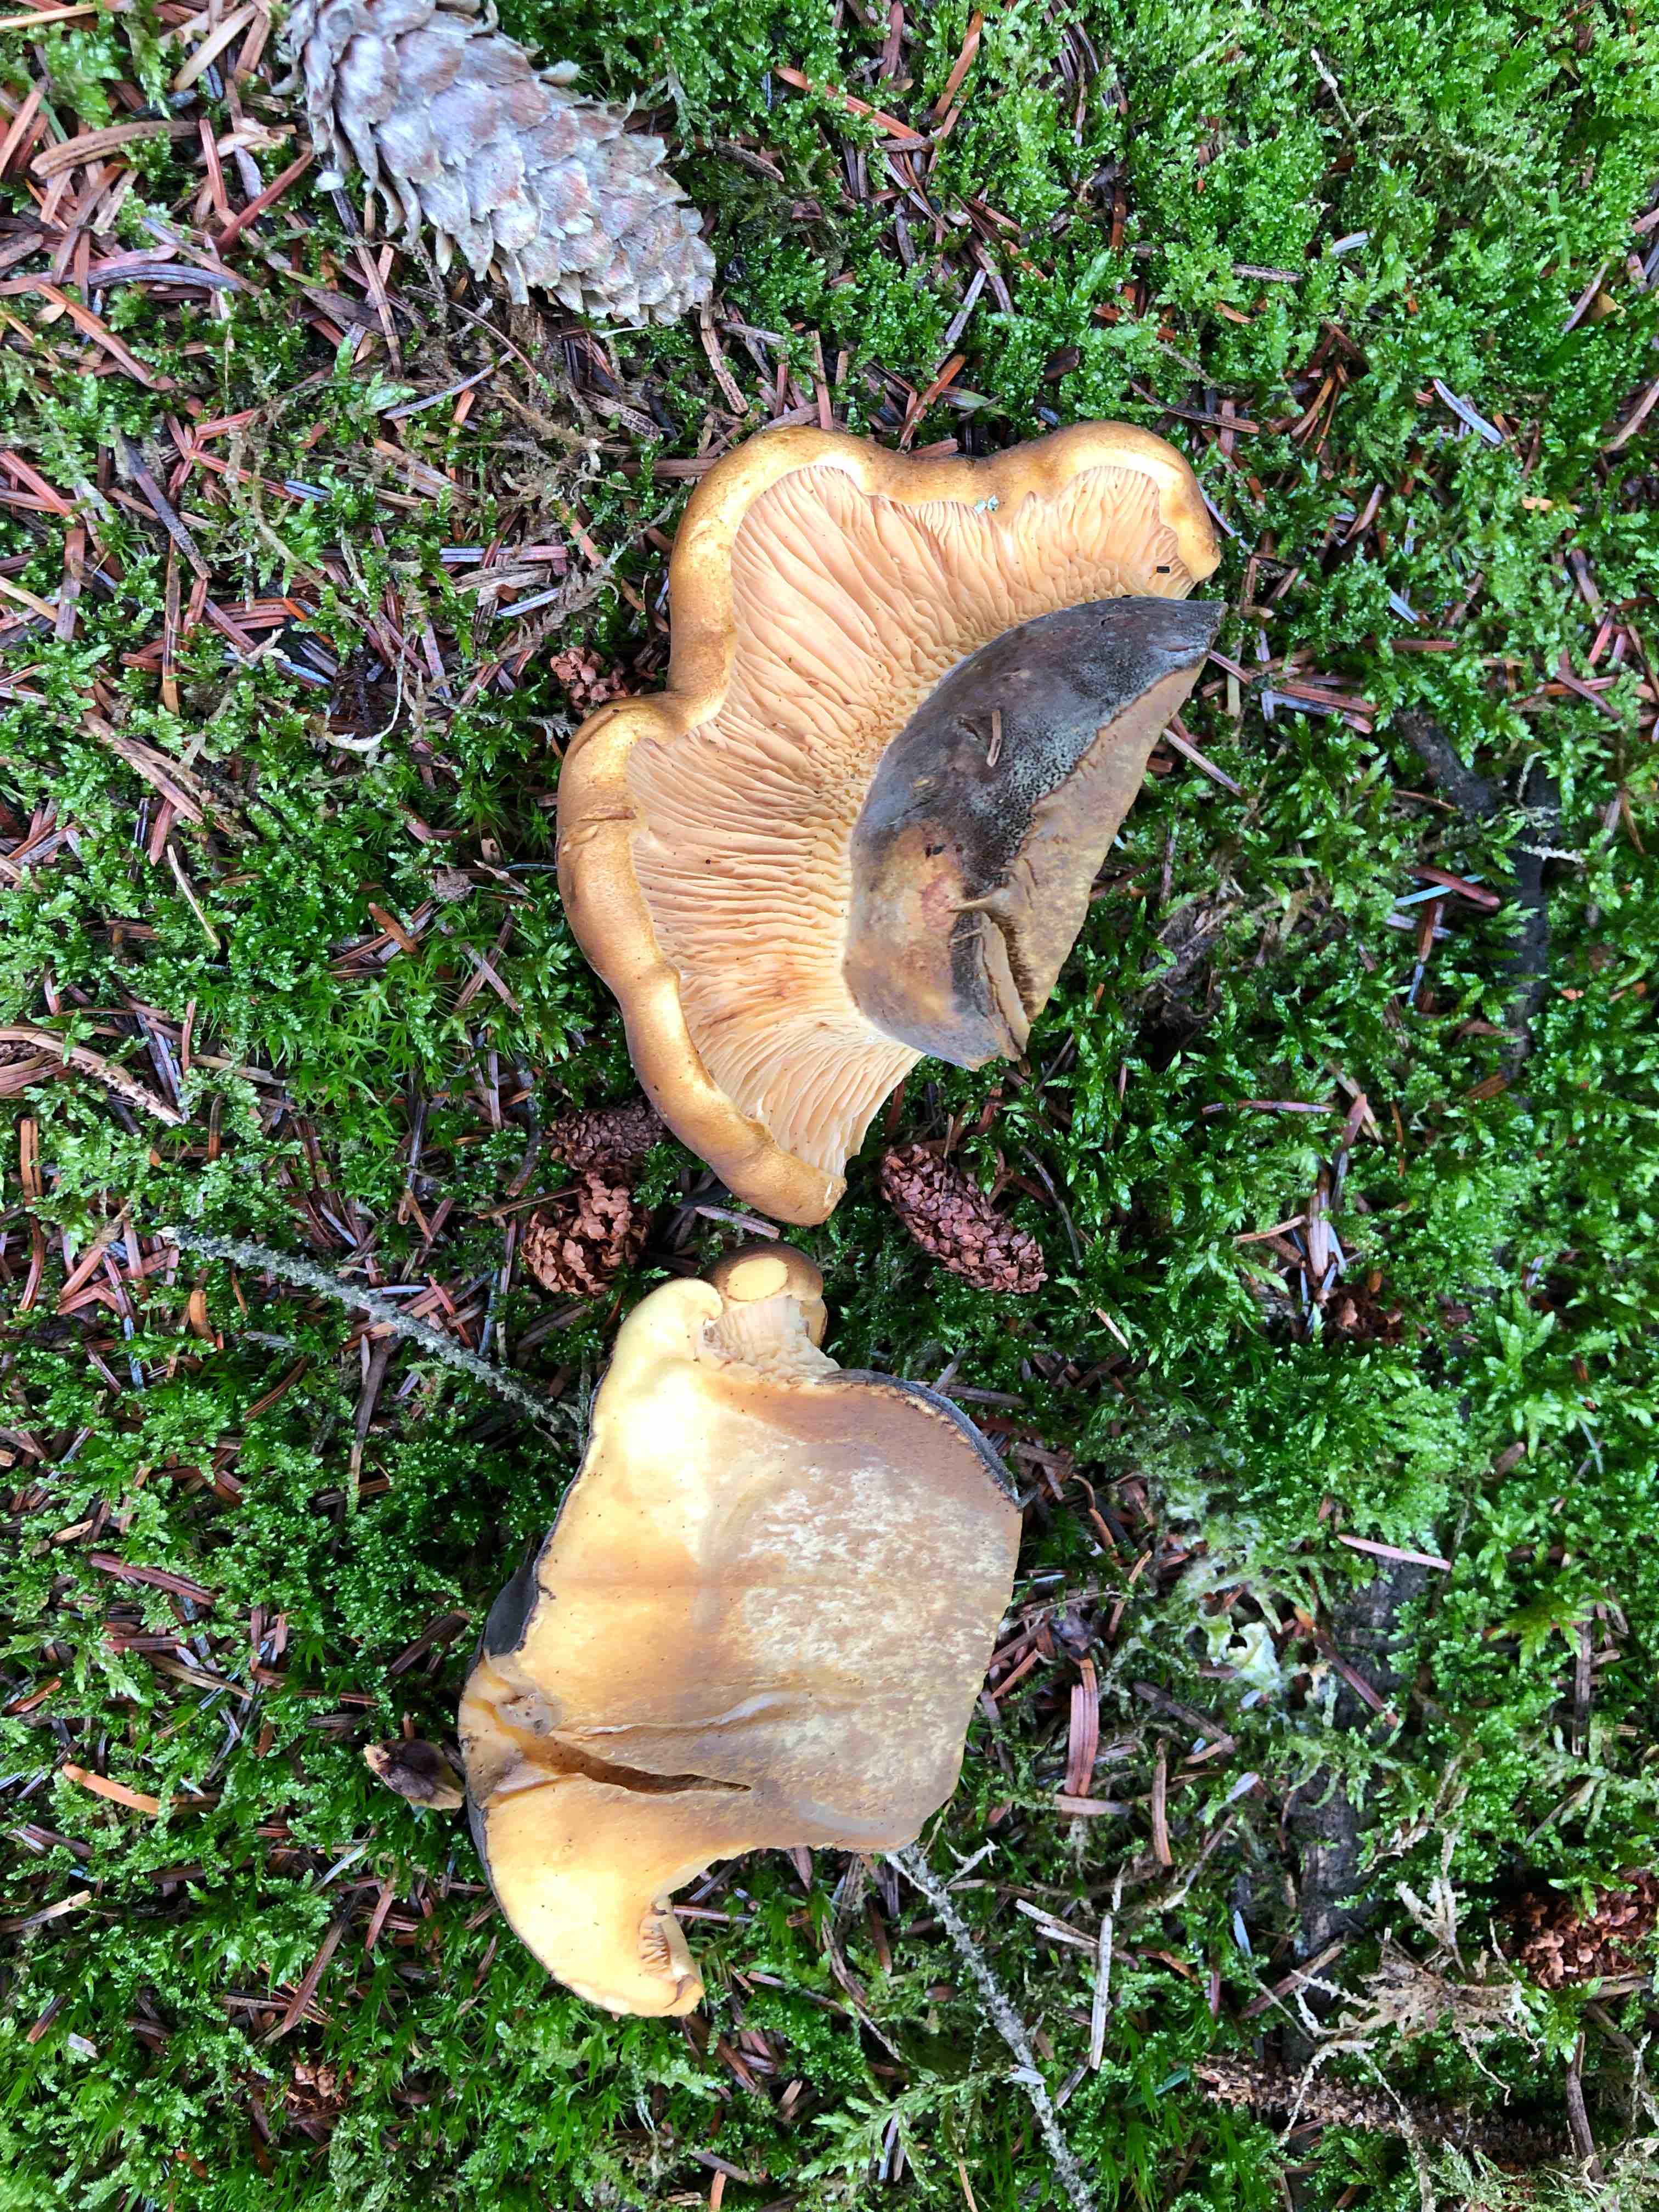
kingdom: Fungi
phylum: Basidiomycota
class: Agaricomycetes
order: Boletales
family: Tapinellaceae
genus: Tapinella
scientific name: Tapinella atrotomentosa
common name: sortfiltet viftesvamp
